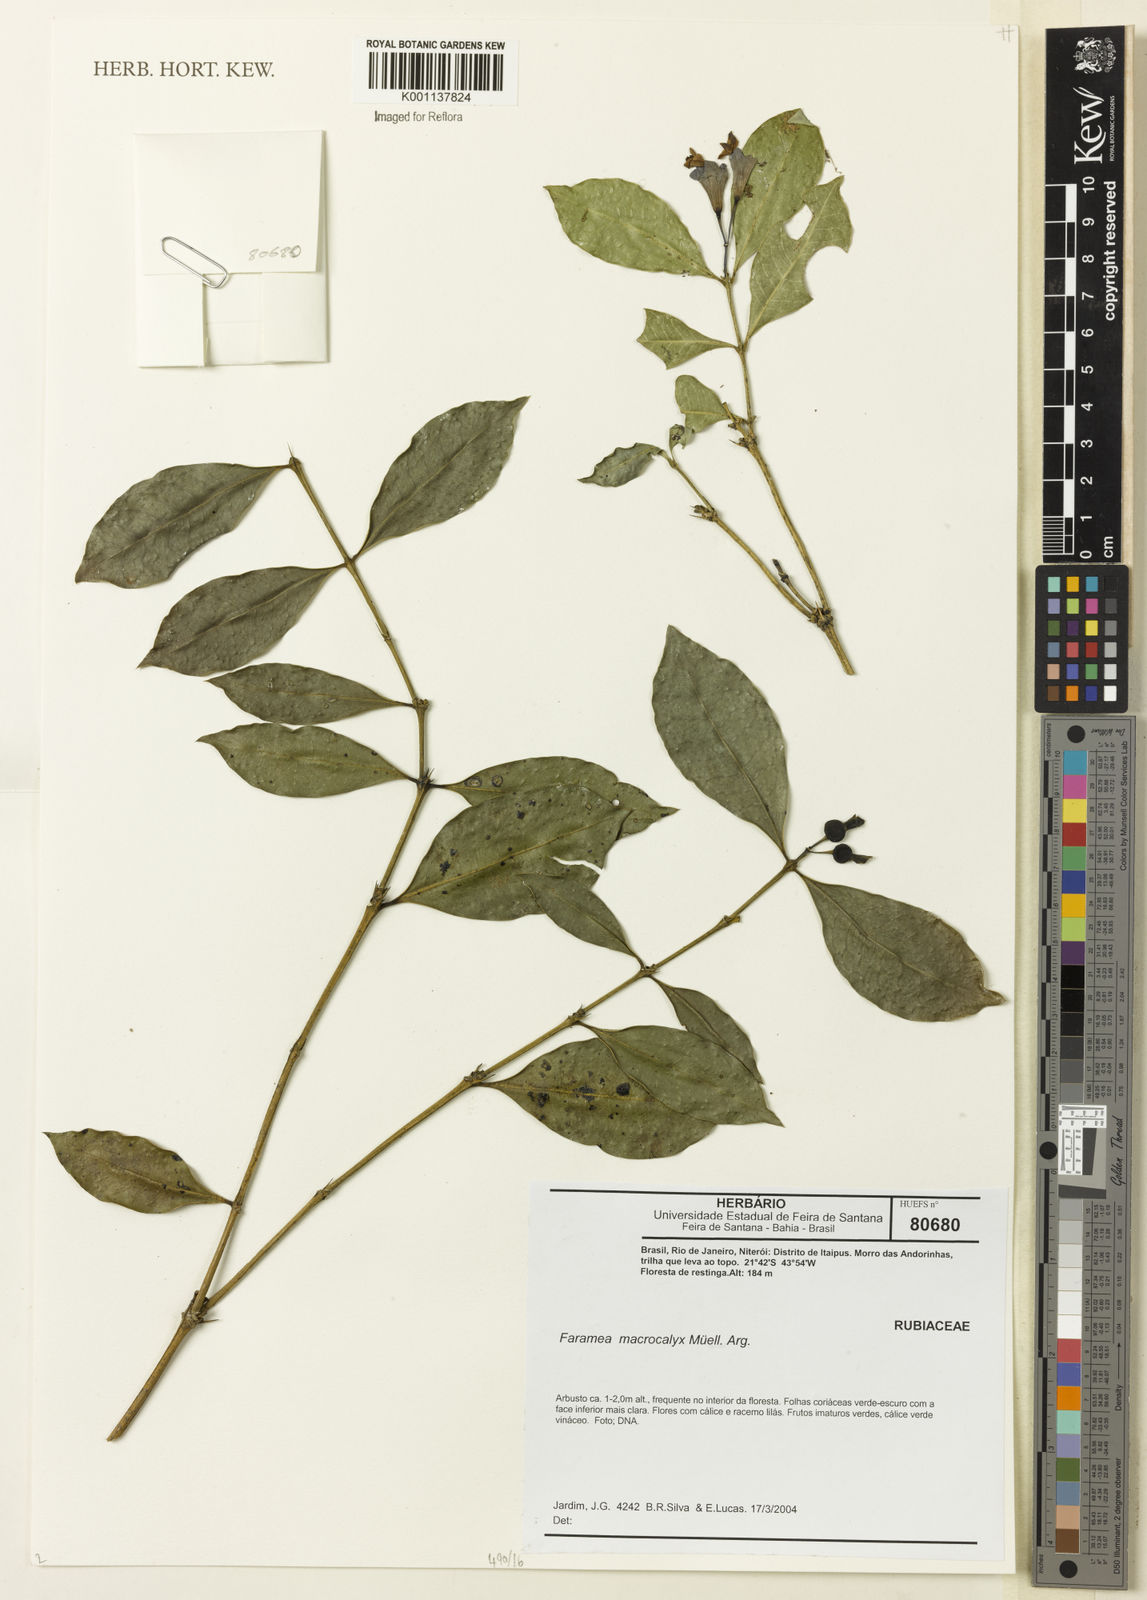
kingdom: Plantae
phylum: Tracheophyta
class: Magnoliopsida
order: Gentianales
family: Rubiaceae
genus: Faramea
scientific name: Faramea
